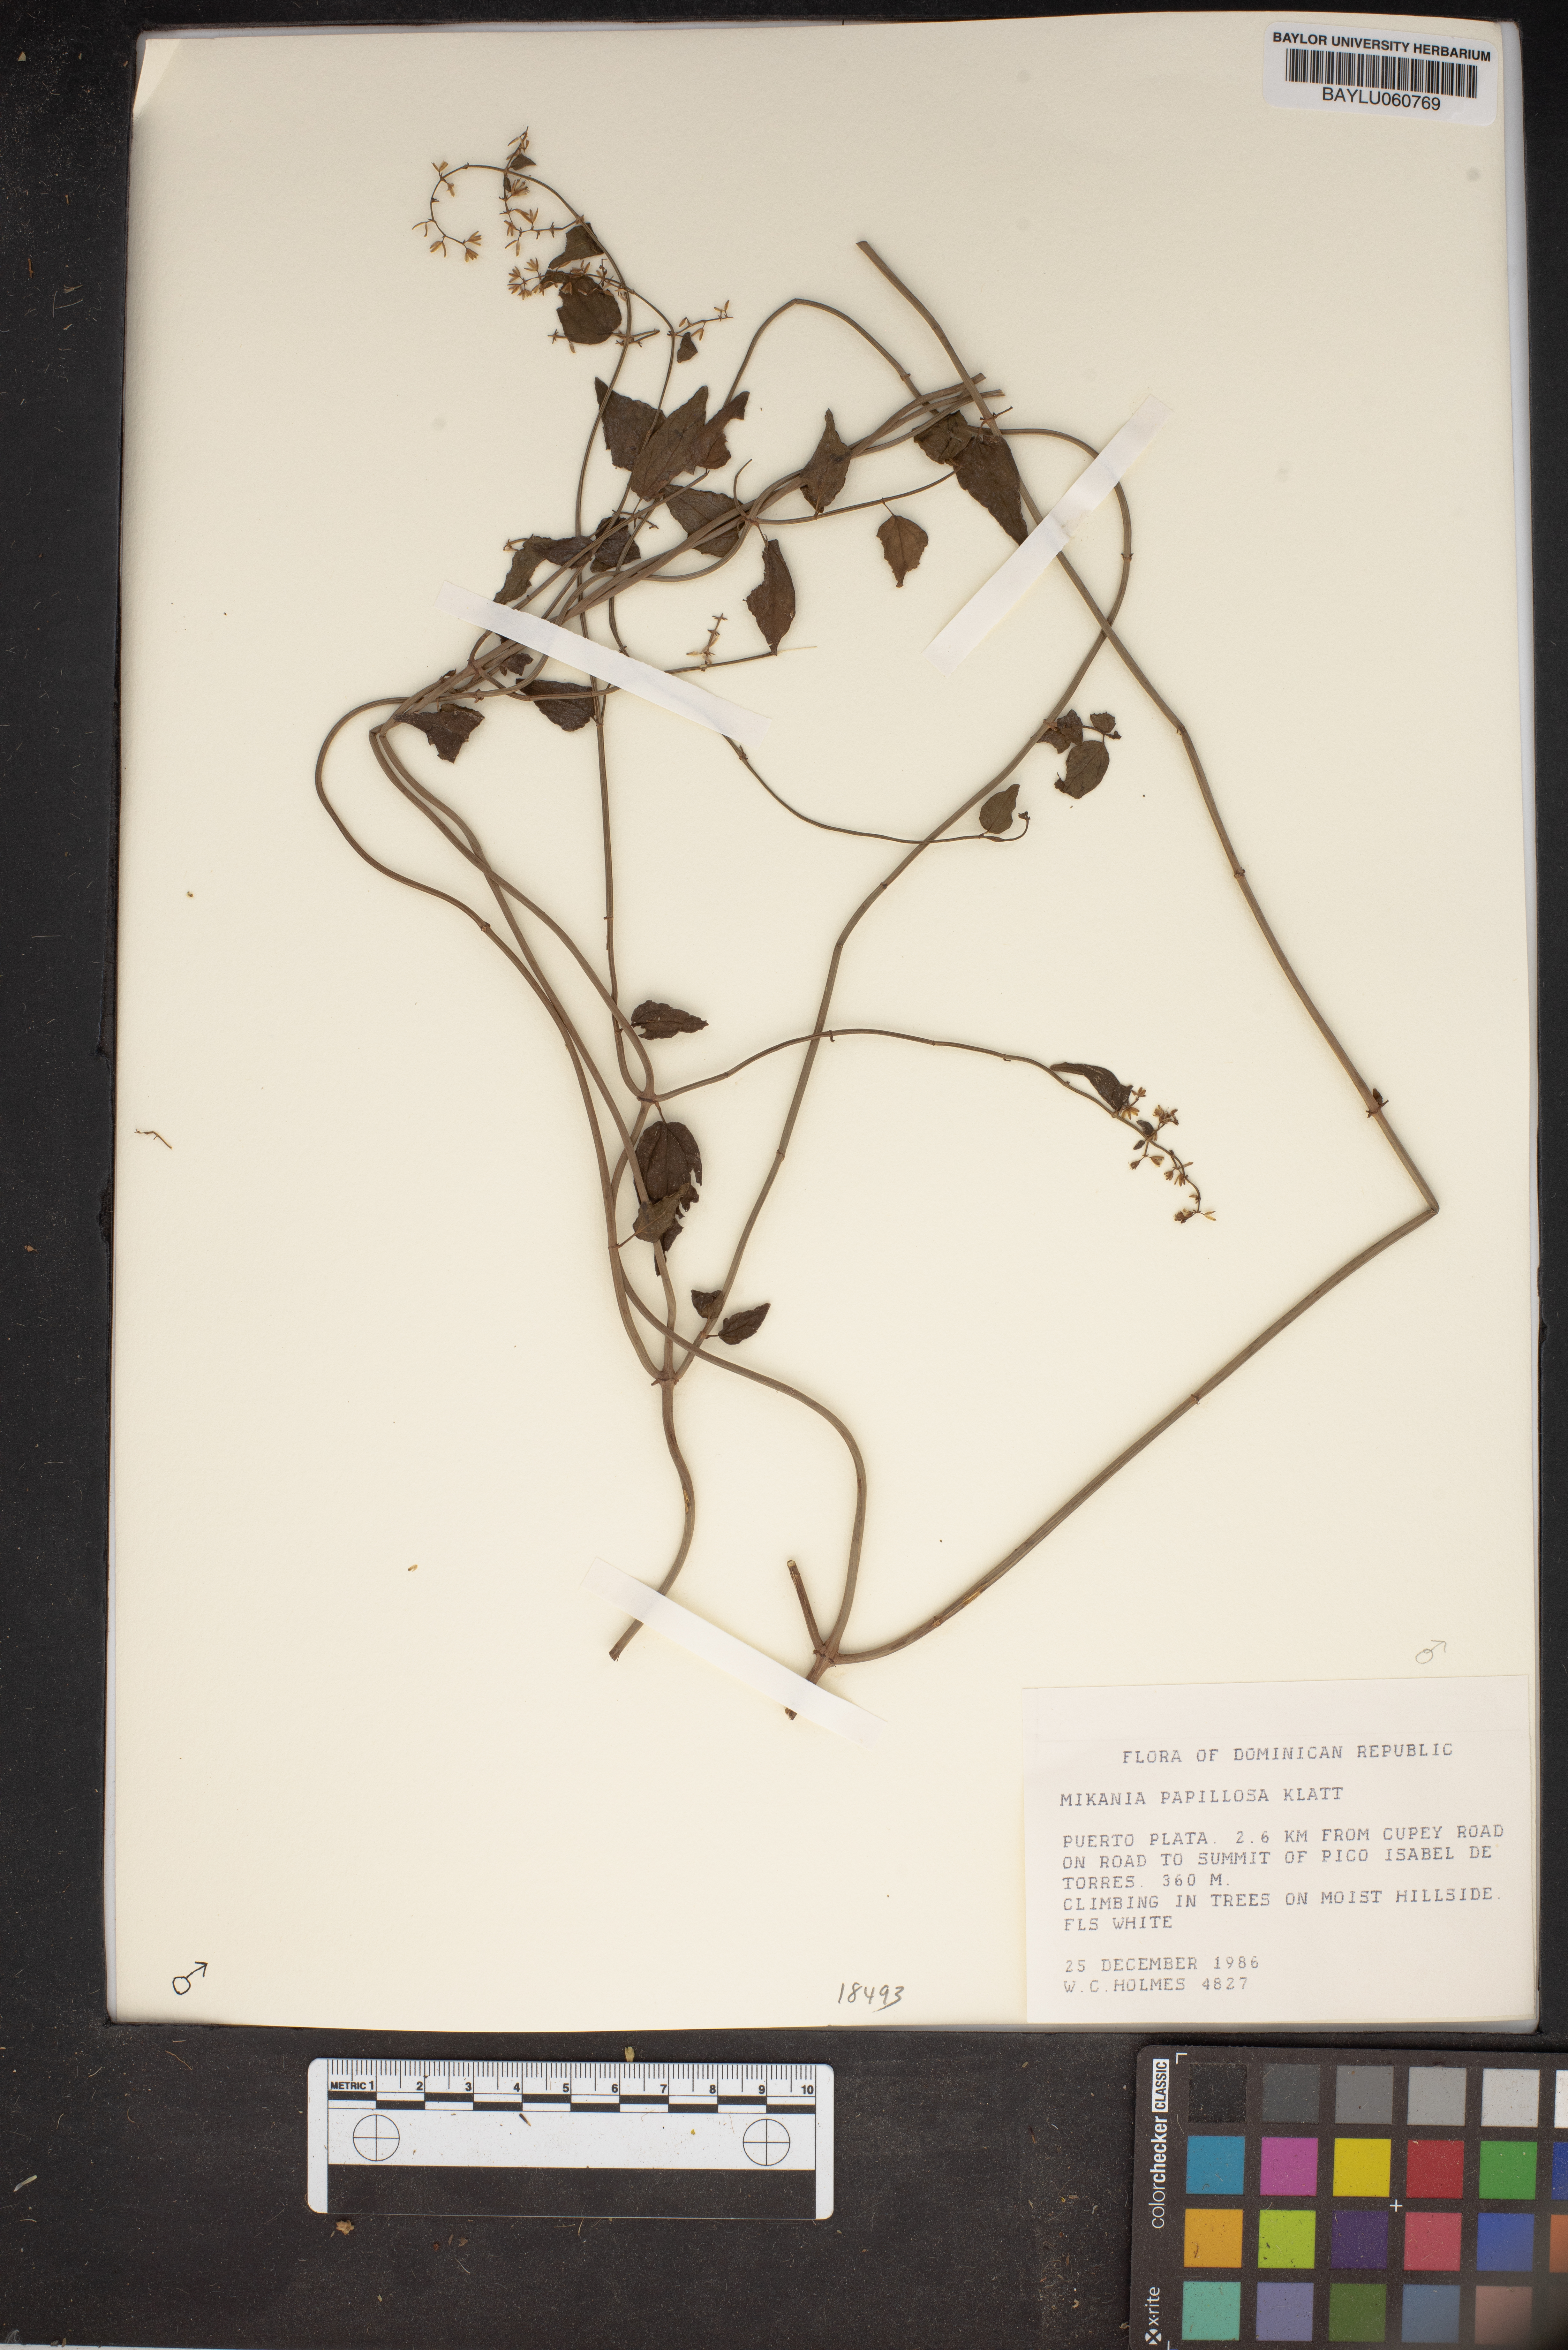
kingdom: Plantae
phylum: Tracheophyta
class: Magnoliopsida
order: Asterales
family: Asteraceae
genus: Mikania
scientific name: Mikania papillosa
